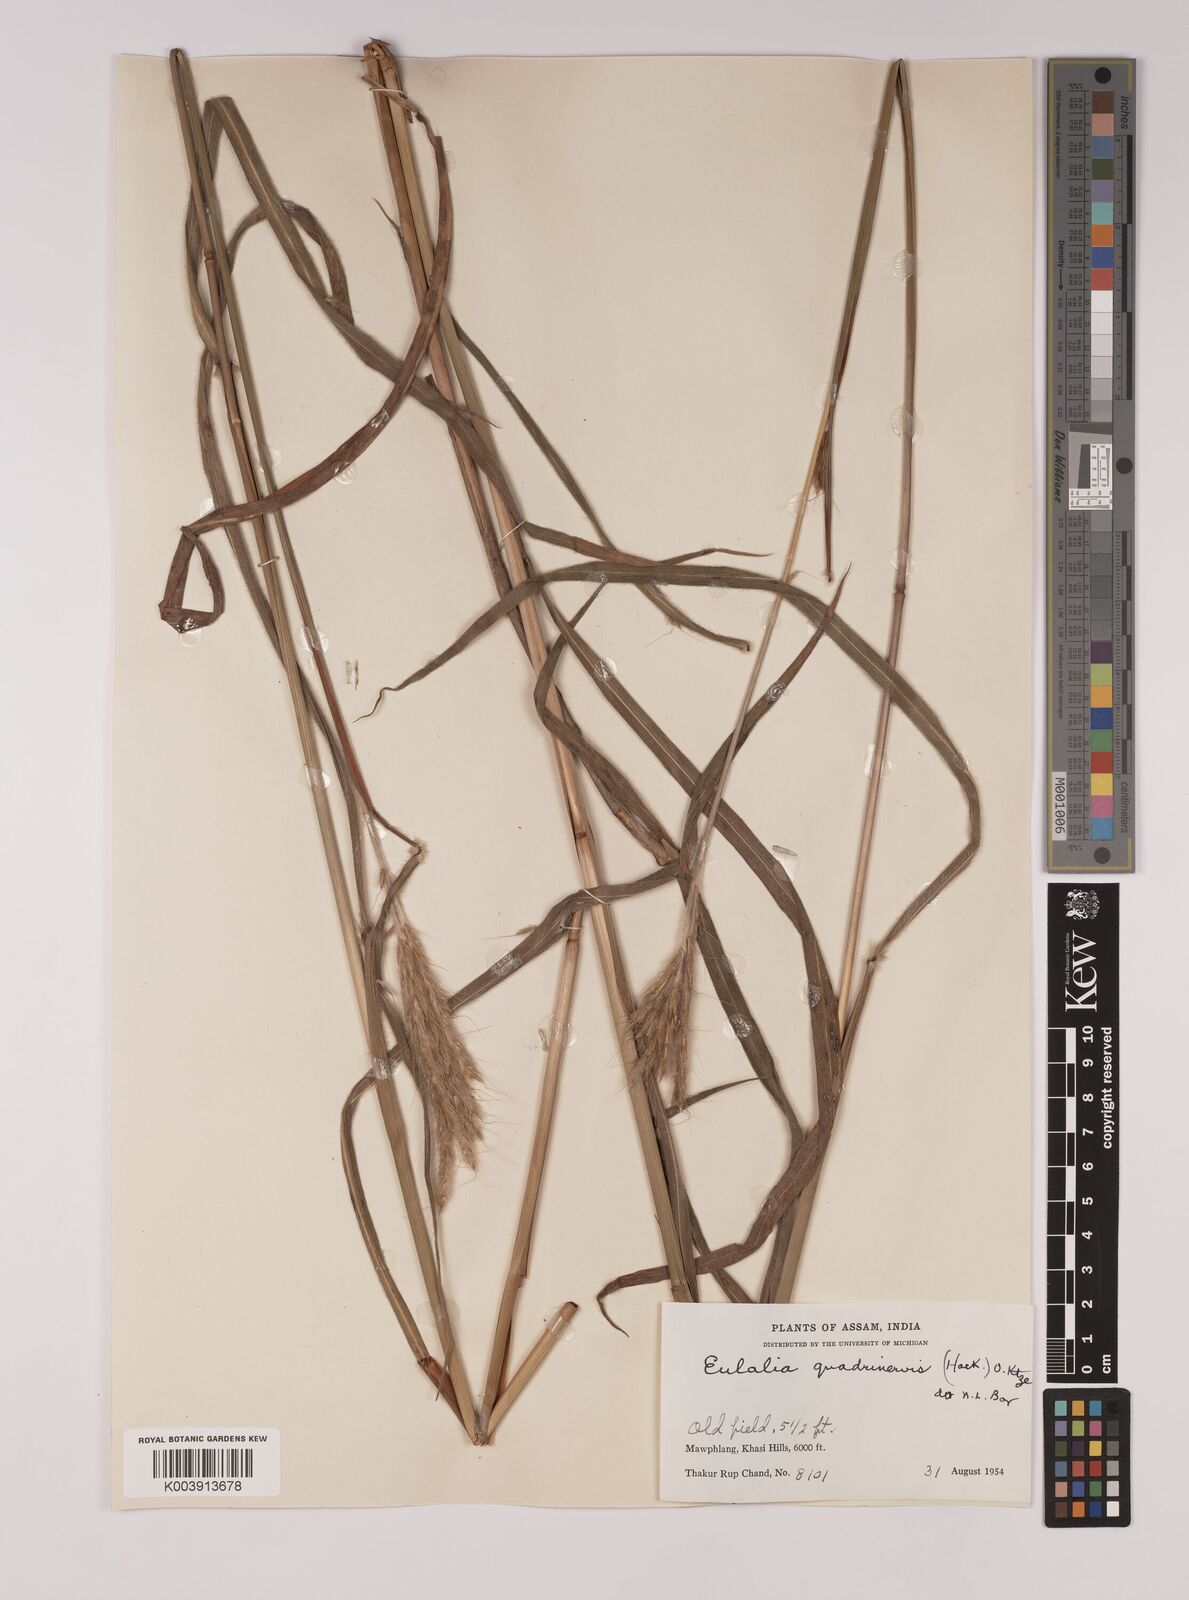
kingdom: Plantae
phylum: Tracheophyta
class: Liliopsida
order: Poales
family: Poaceae
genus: Pseudopogonatherum
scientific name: Pseudopogonatherum quadrinerve
